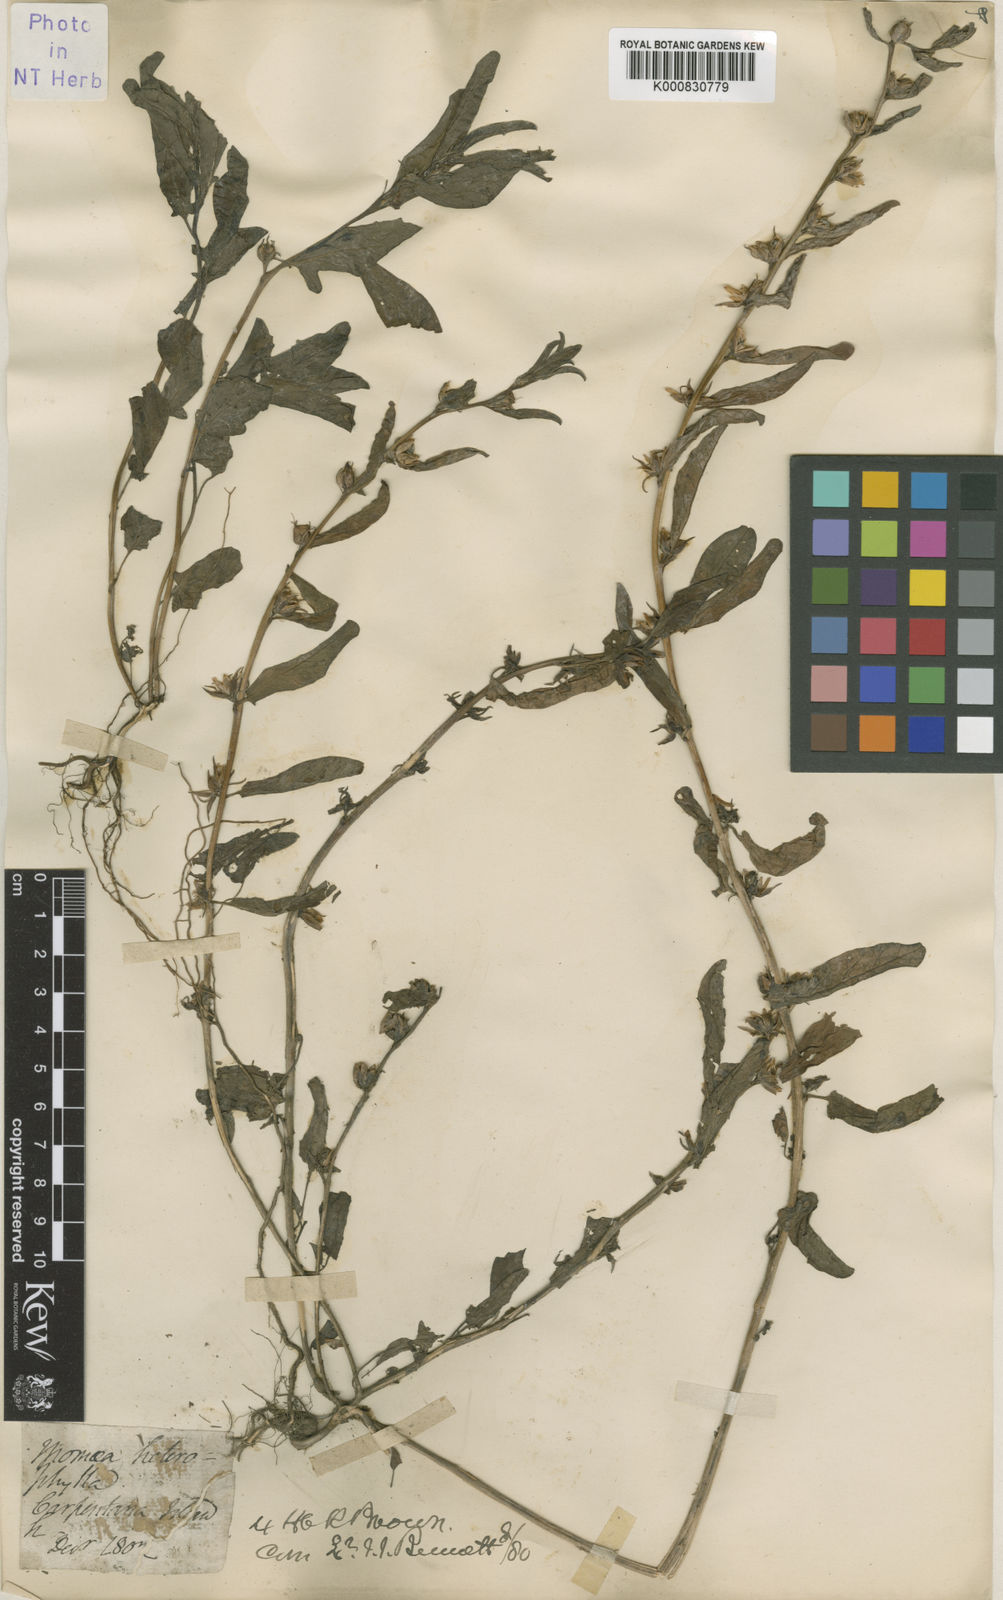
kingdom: Plantae
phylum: Tracheophyta
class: Magnoliopsida
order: Solanales
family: Convolvulaceae
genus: Ipomoea
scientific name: Ipomoea diversifolia
